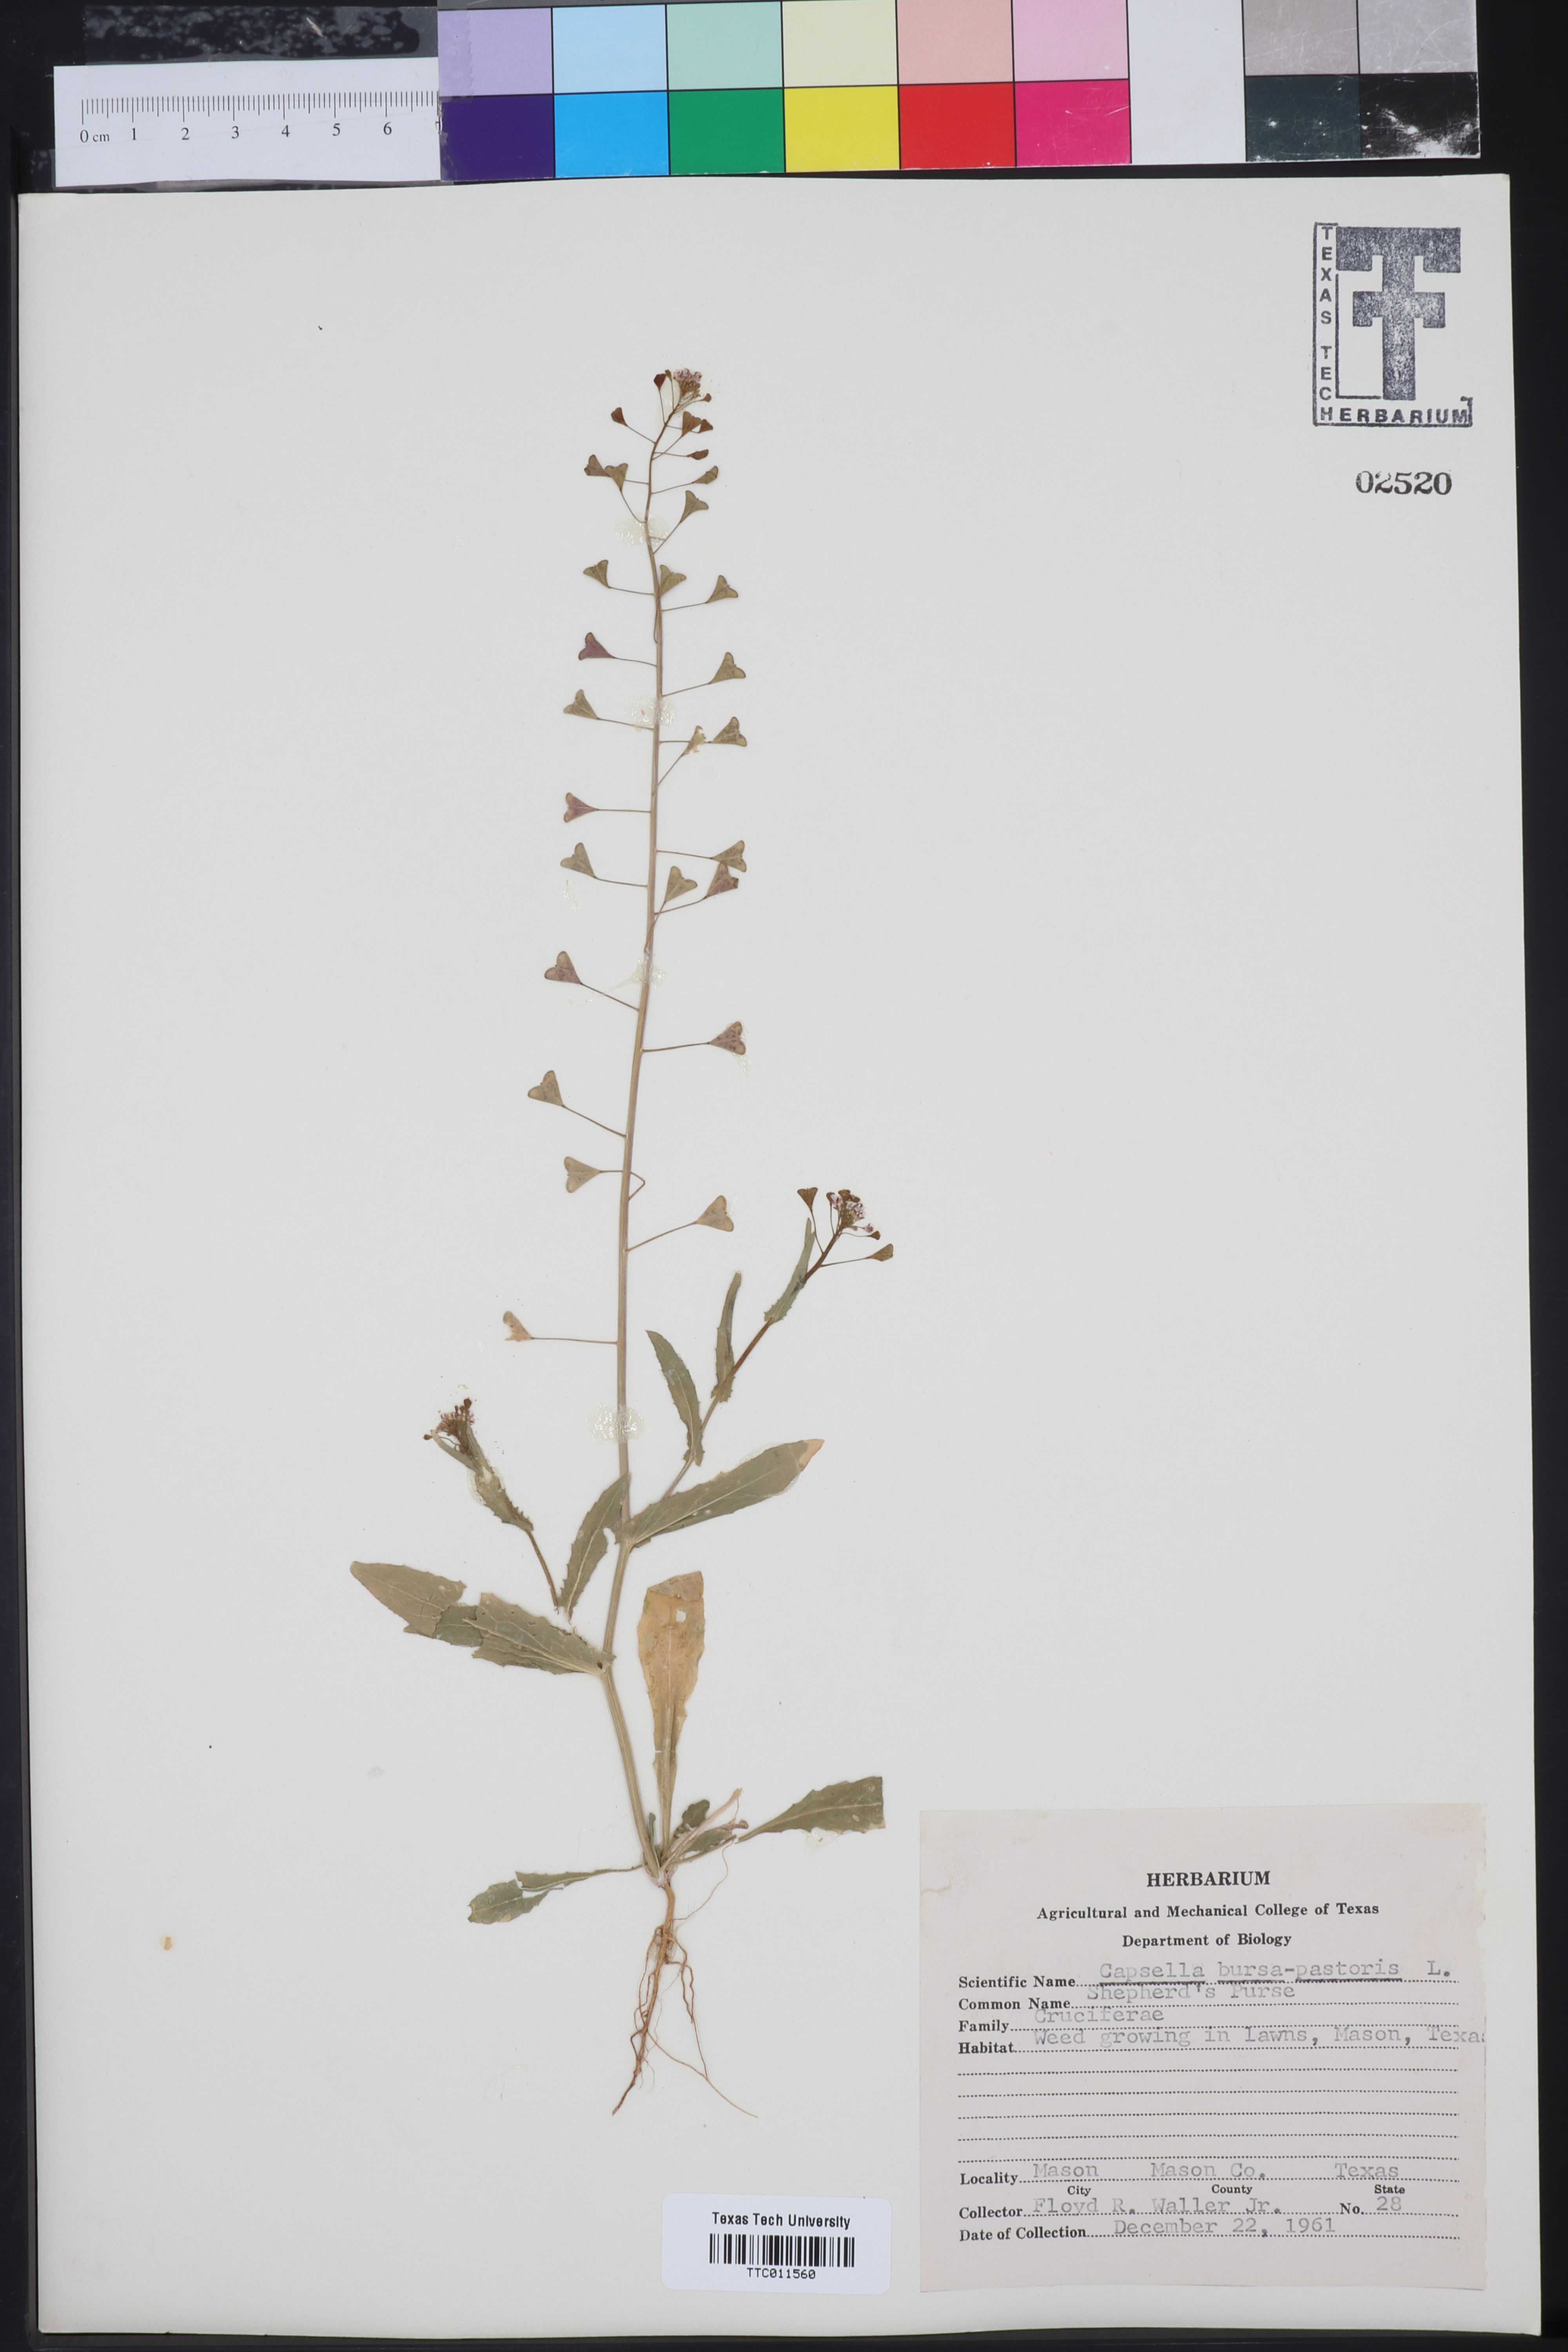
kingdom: Plantae
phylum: Tracheophyta
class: Magnoliopsida
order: Brassicales
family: Brassicaceae
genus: Capsella
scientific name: Capsella bursa-pastoris
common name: Shepherd's purse
